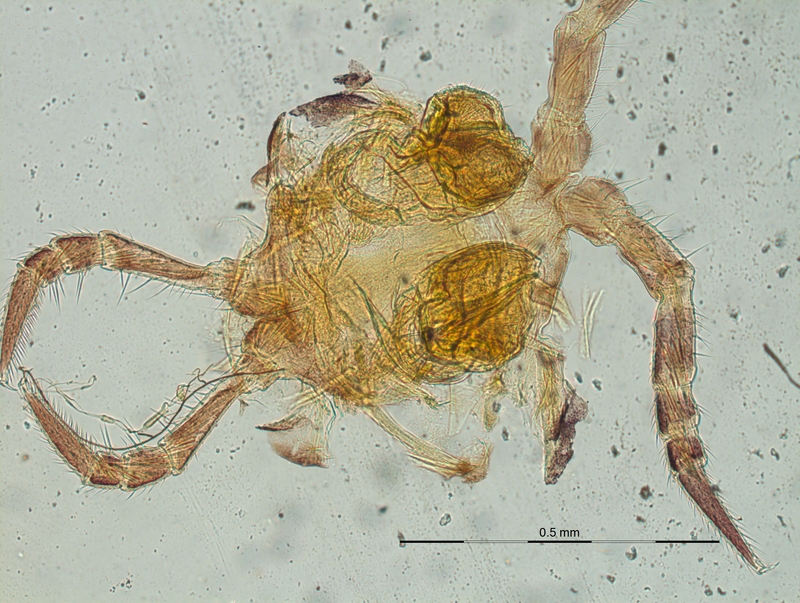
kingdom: Animalia
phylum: Arthropoda
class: Diplopoda
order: Chordeumatida
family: Craspedosomatidae
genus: Craspedosoma
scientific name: Craspedosoma alemannicum
